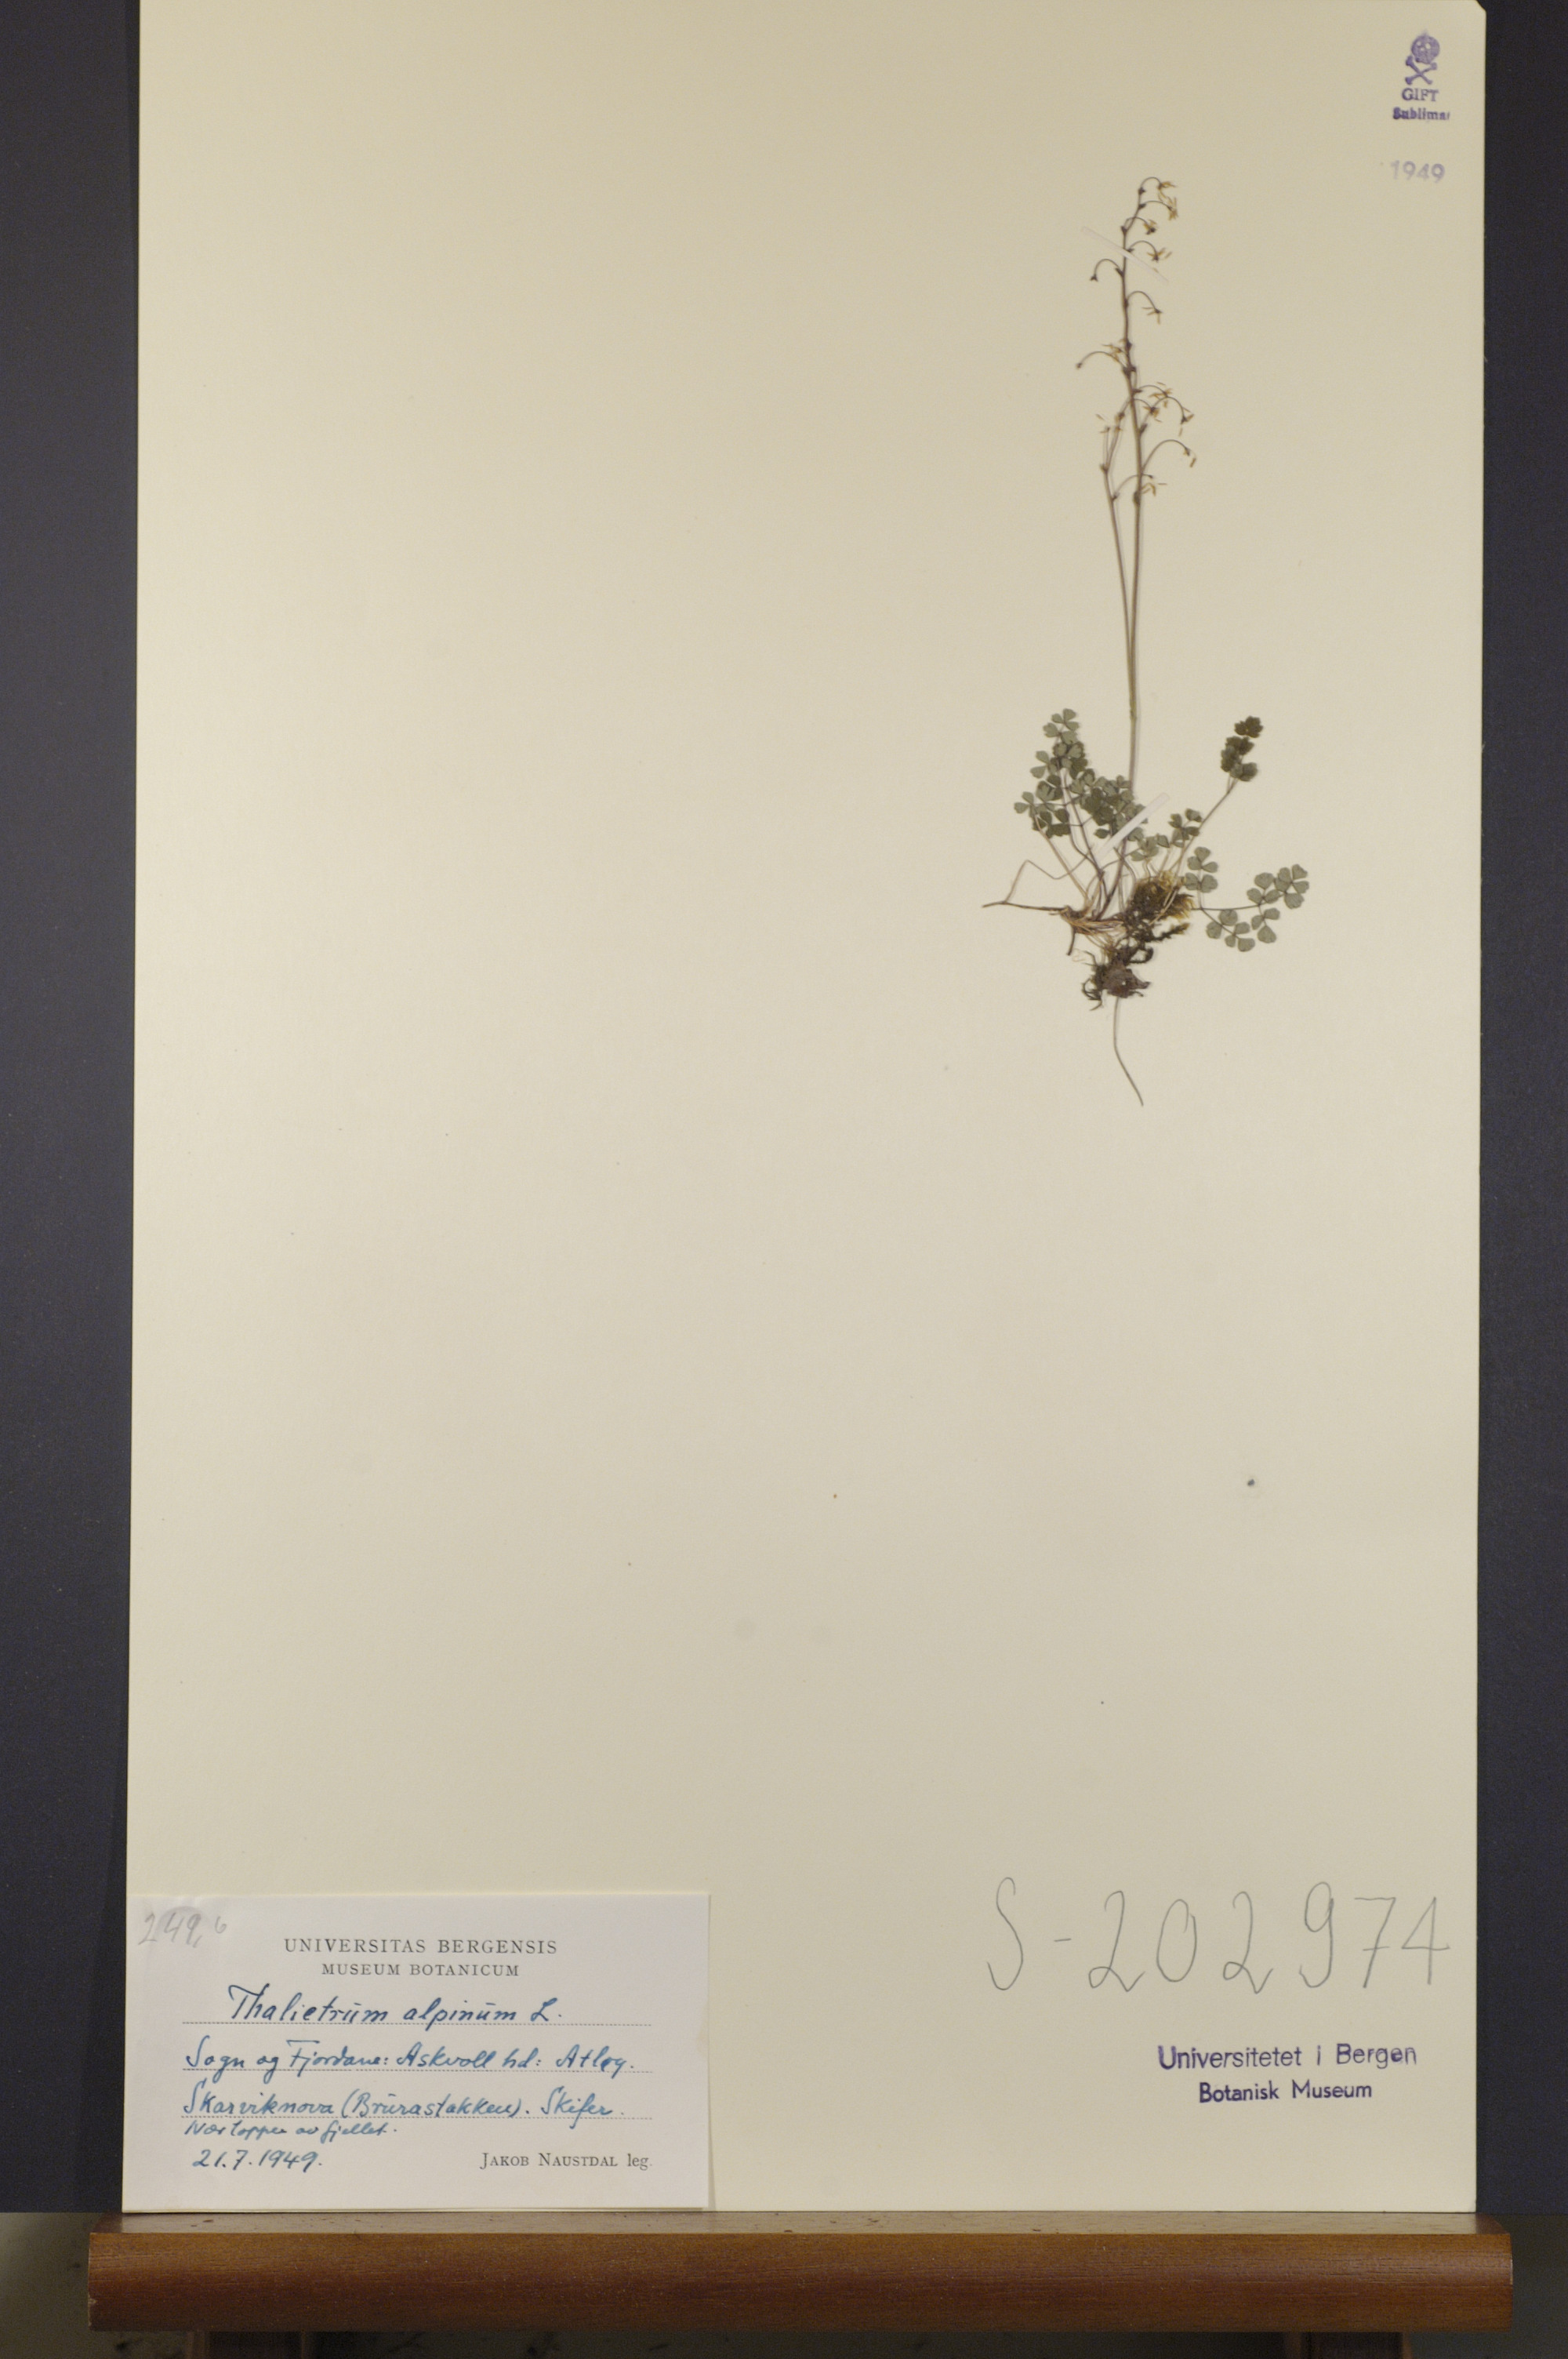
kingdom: Plantae
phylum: Tracheophyta
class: Magnoliopsida
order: Ranunculales
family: Ranunculaceae
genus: Thalictrum
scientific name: Thalictrum alpinum
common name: Alpine meadow-rue
